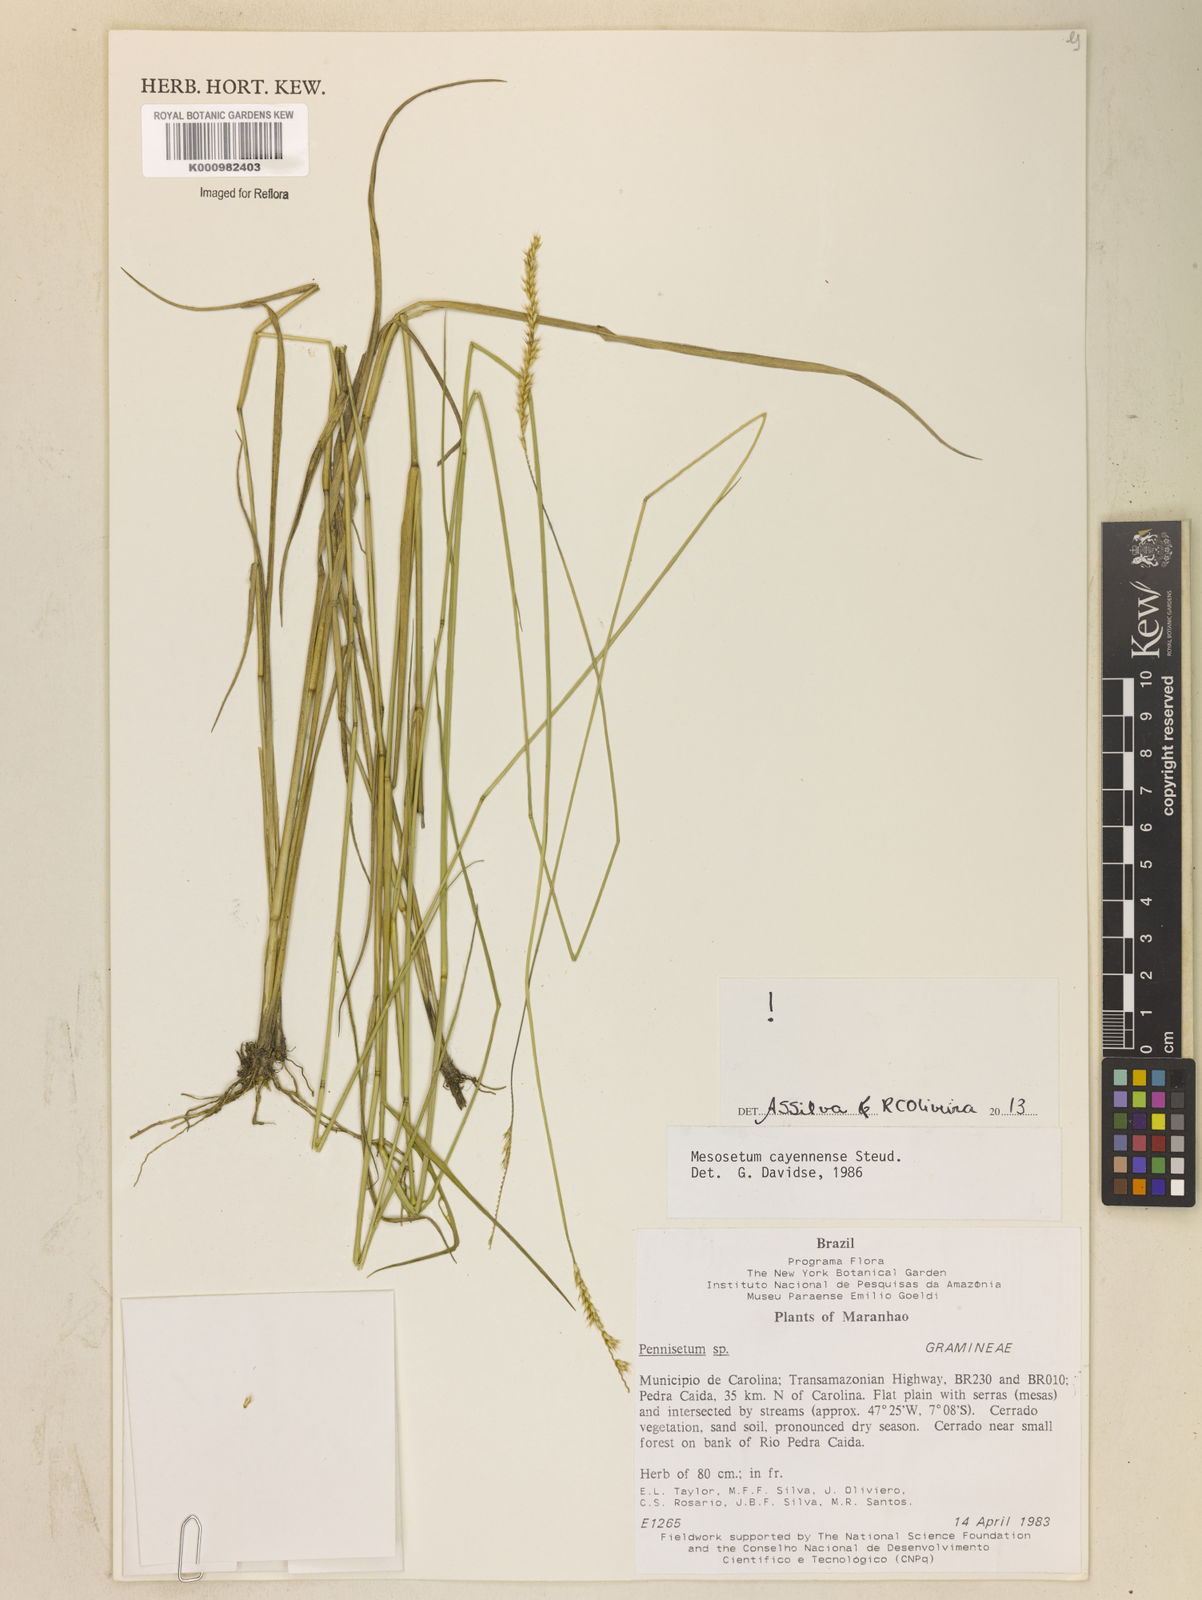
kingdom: Plantae
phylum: Tracheophyta
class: Liliopsida
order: Poales
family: Poaceae
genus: Mesosetum
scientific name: Mesosetum cayennense
